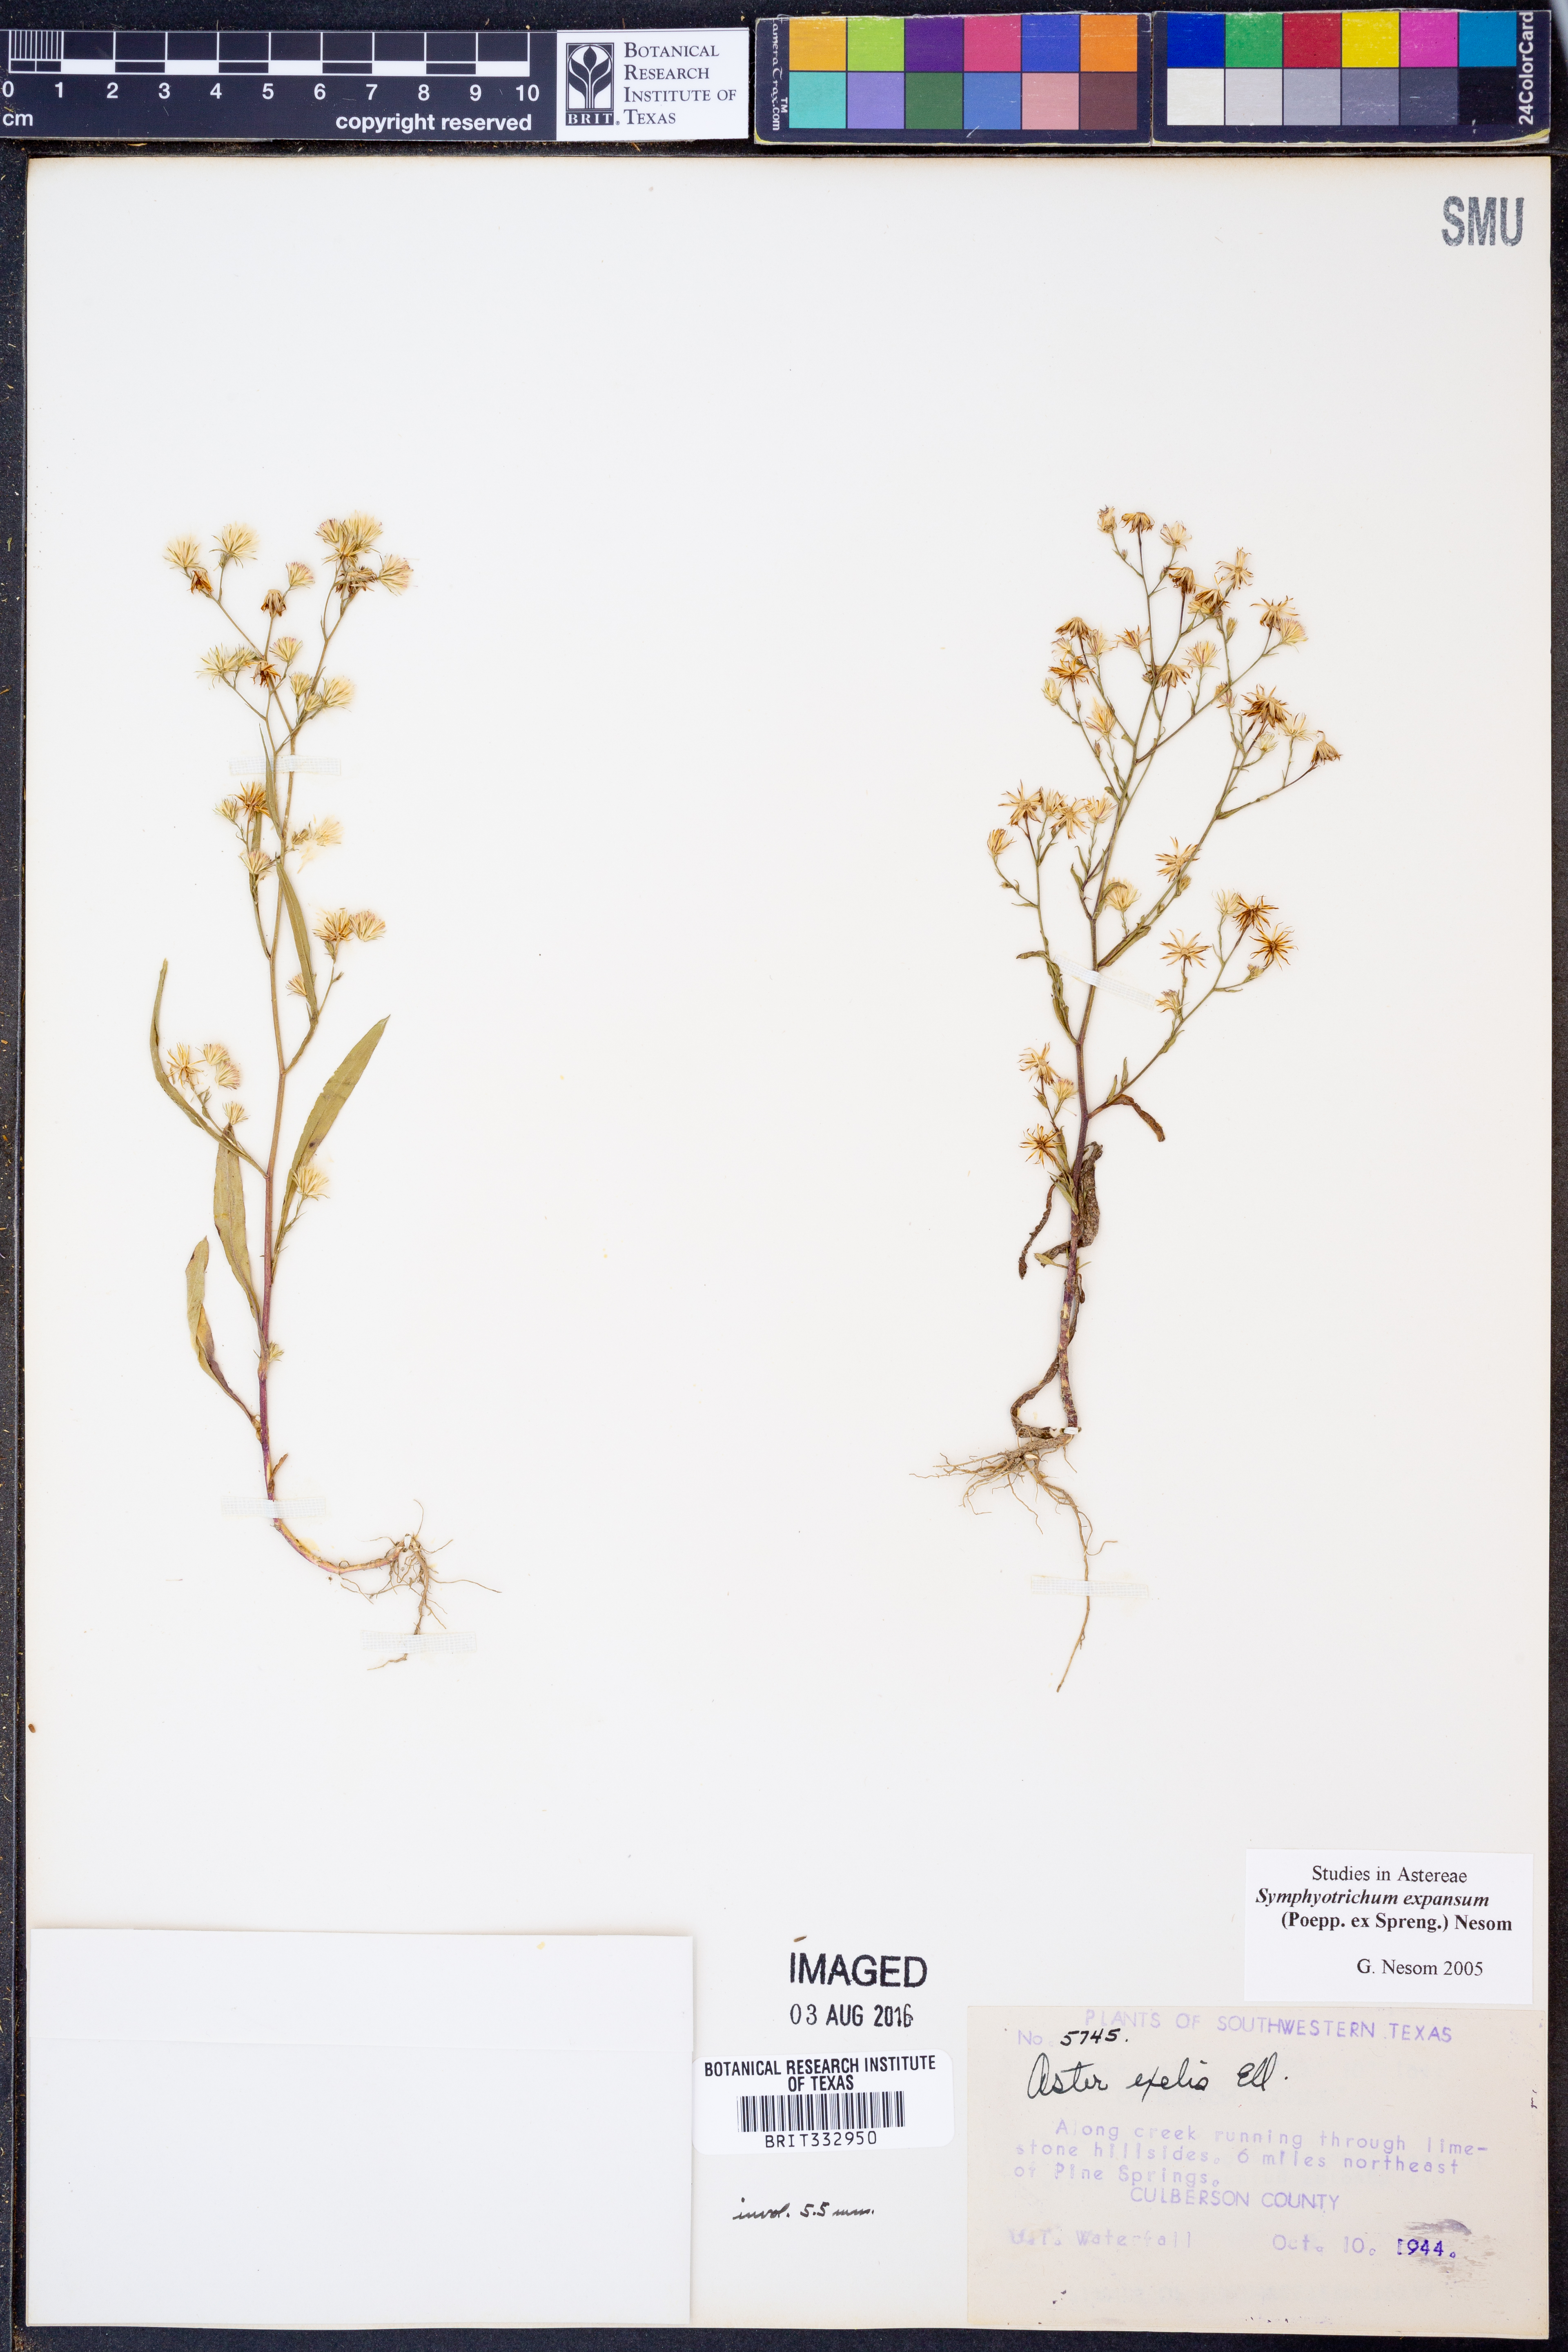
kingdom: Plantae
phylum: Tracheophyta
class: Magnoliopsida
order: Asterales
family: Asteraceae
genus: Symphyotrichum
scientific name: Symphyotrichum expansum
